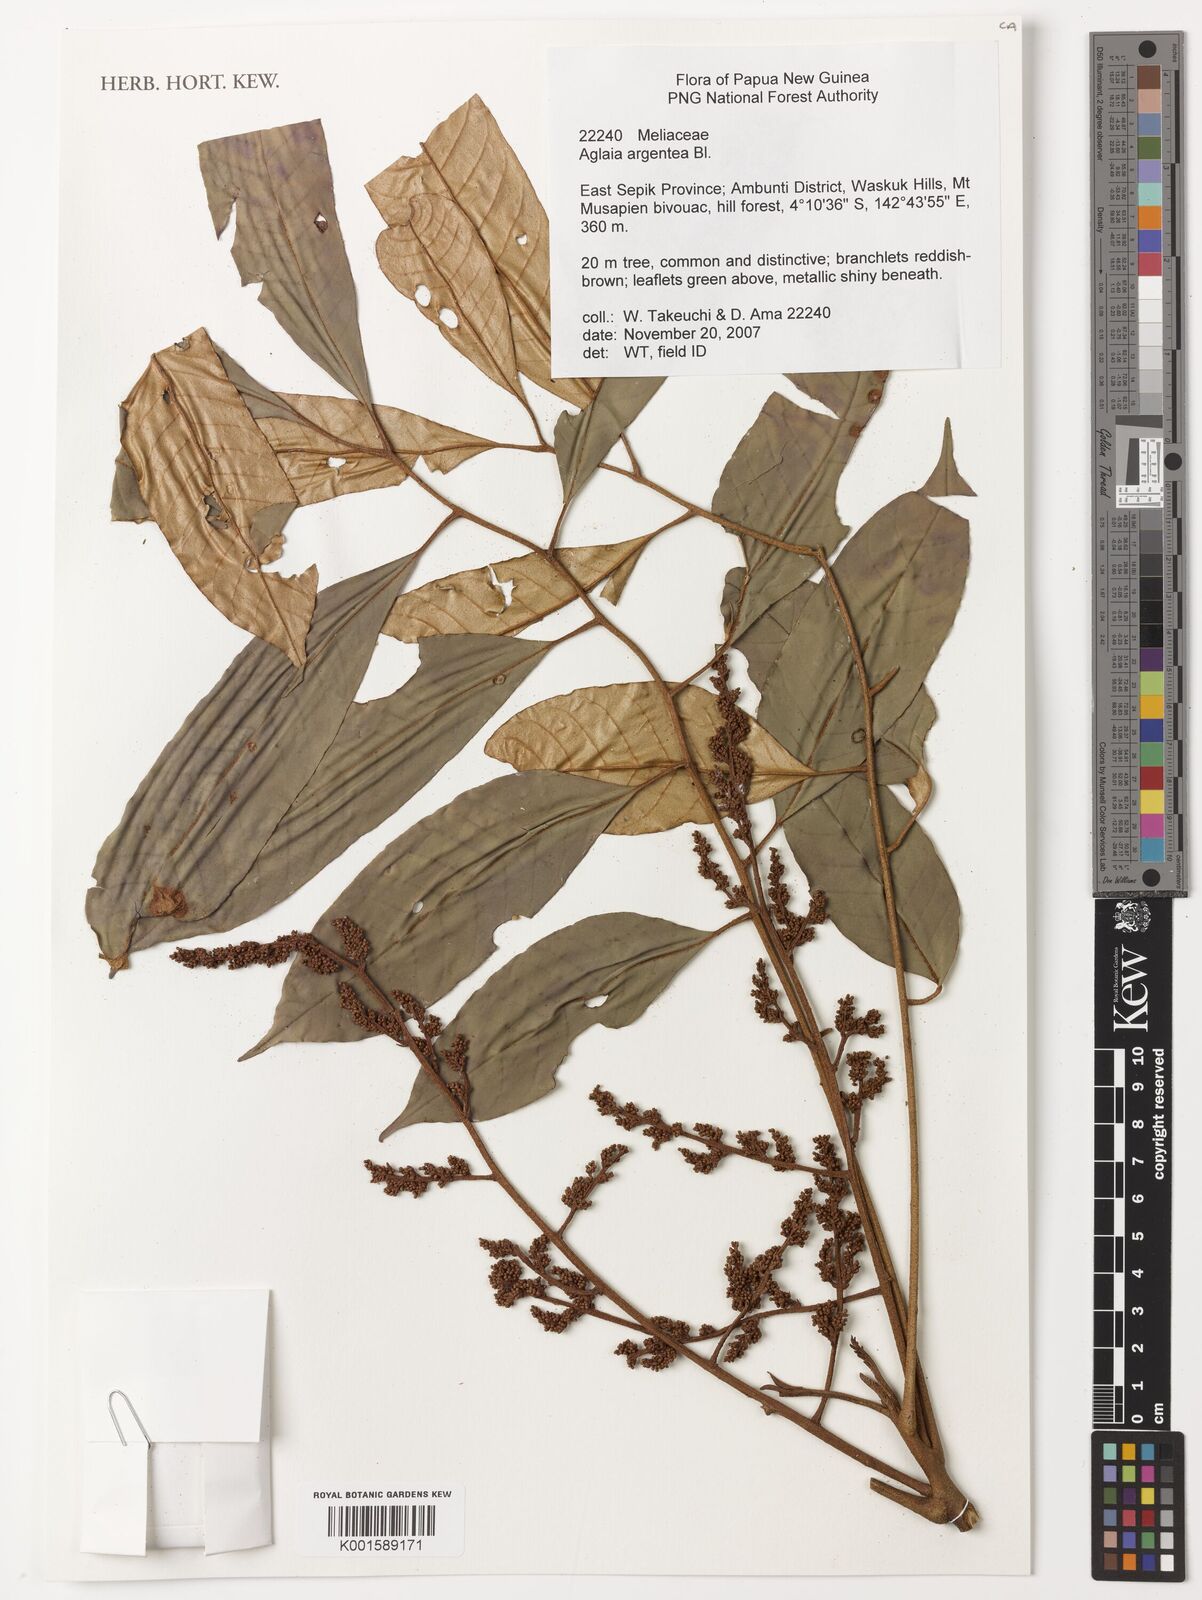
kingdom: Plantae
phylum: Tracheophyta
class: Magnoliopsida
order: Sapindales
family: Meliaceae
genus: Aglaia
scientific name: Aglaia argentea
